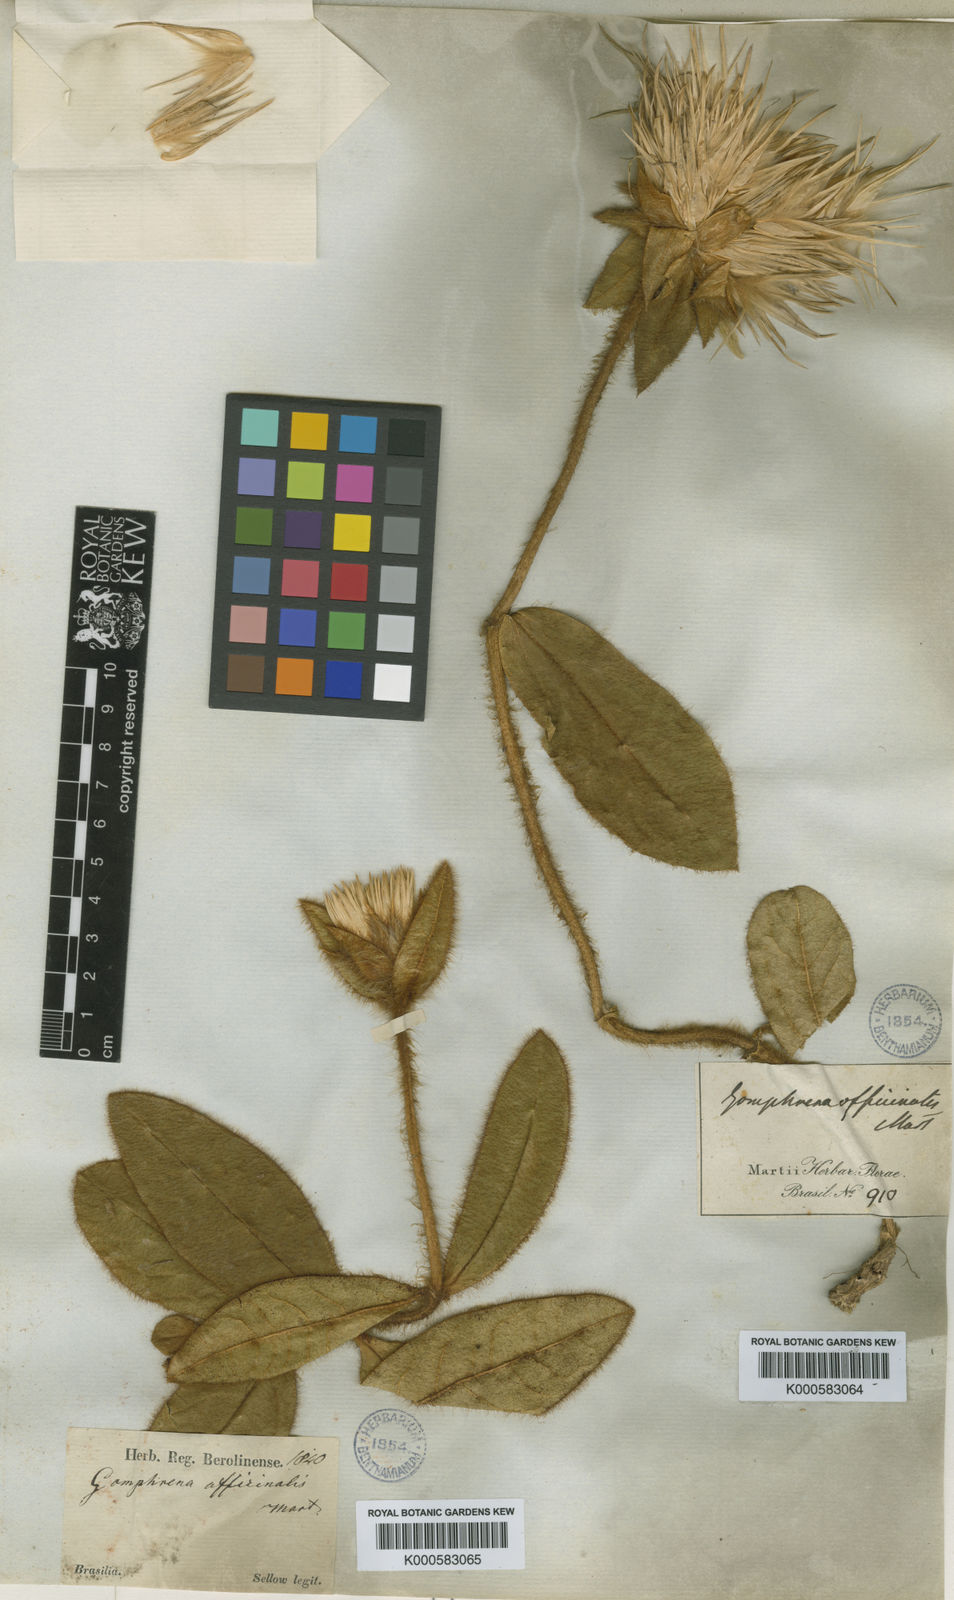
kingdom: Plantae
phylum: Tracheophyta
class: Magnoliopsida
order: Caryophyllales
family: Amaranthaceae
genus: Gomphrena
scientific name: Gomphrena arborescens
